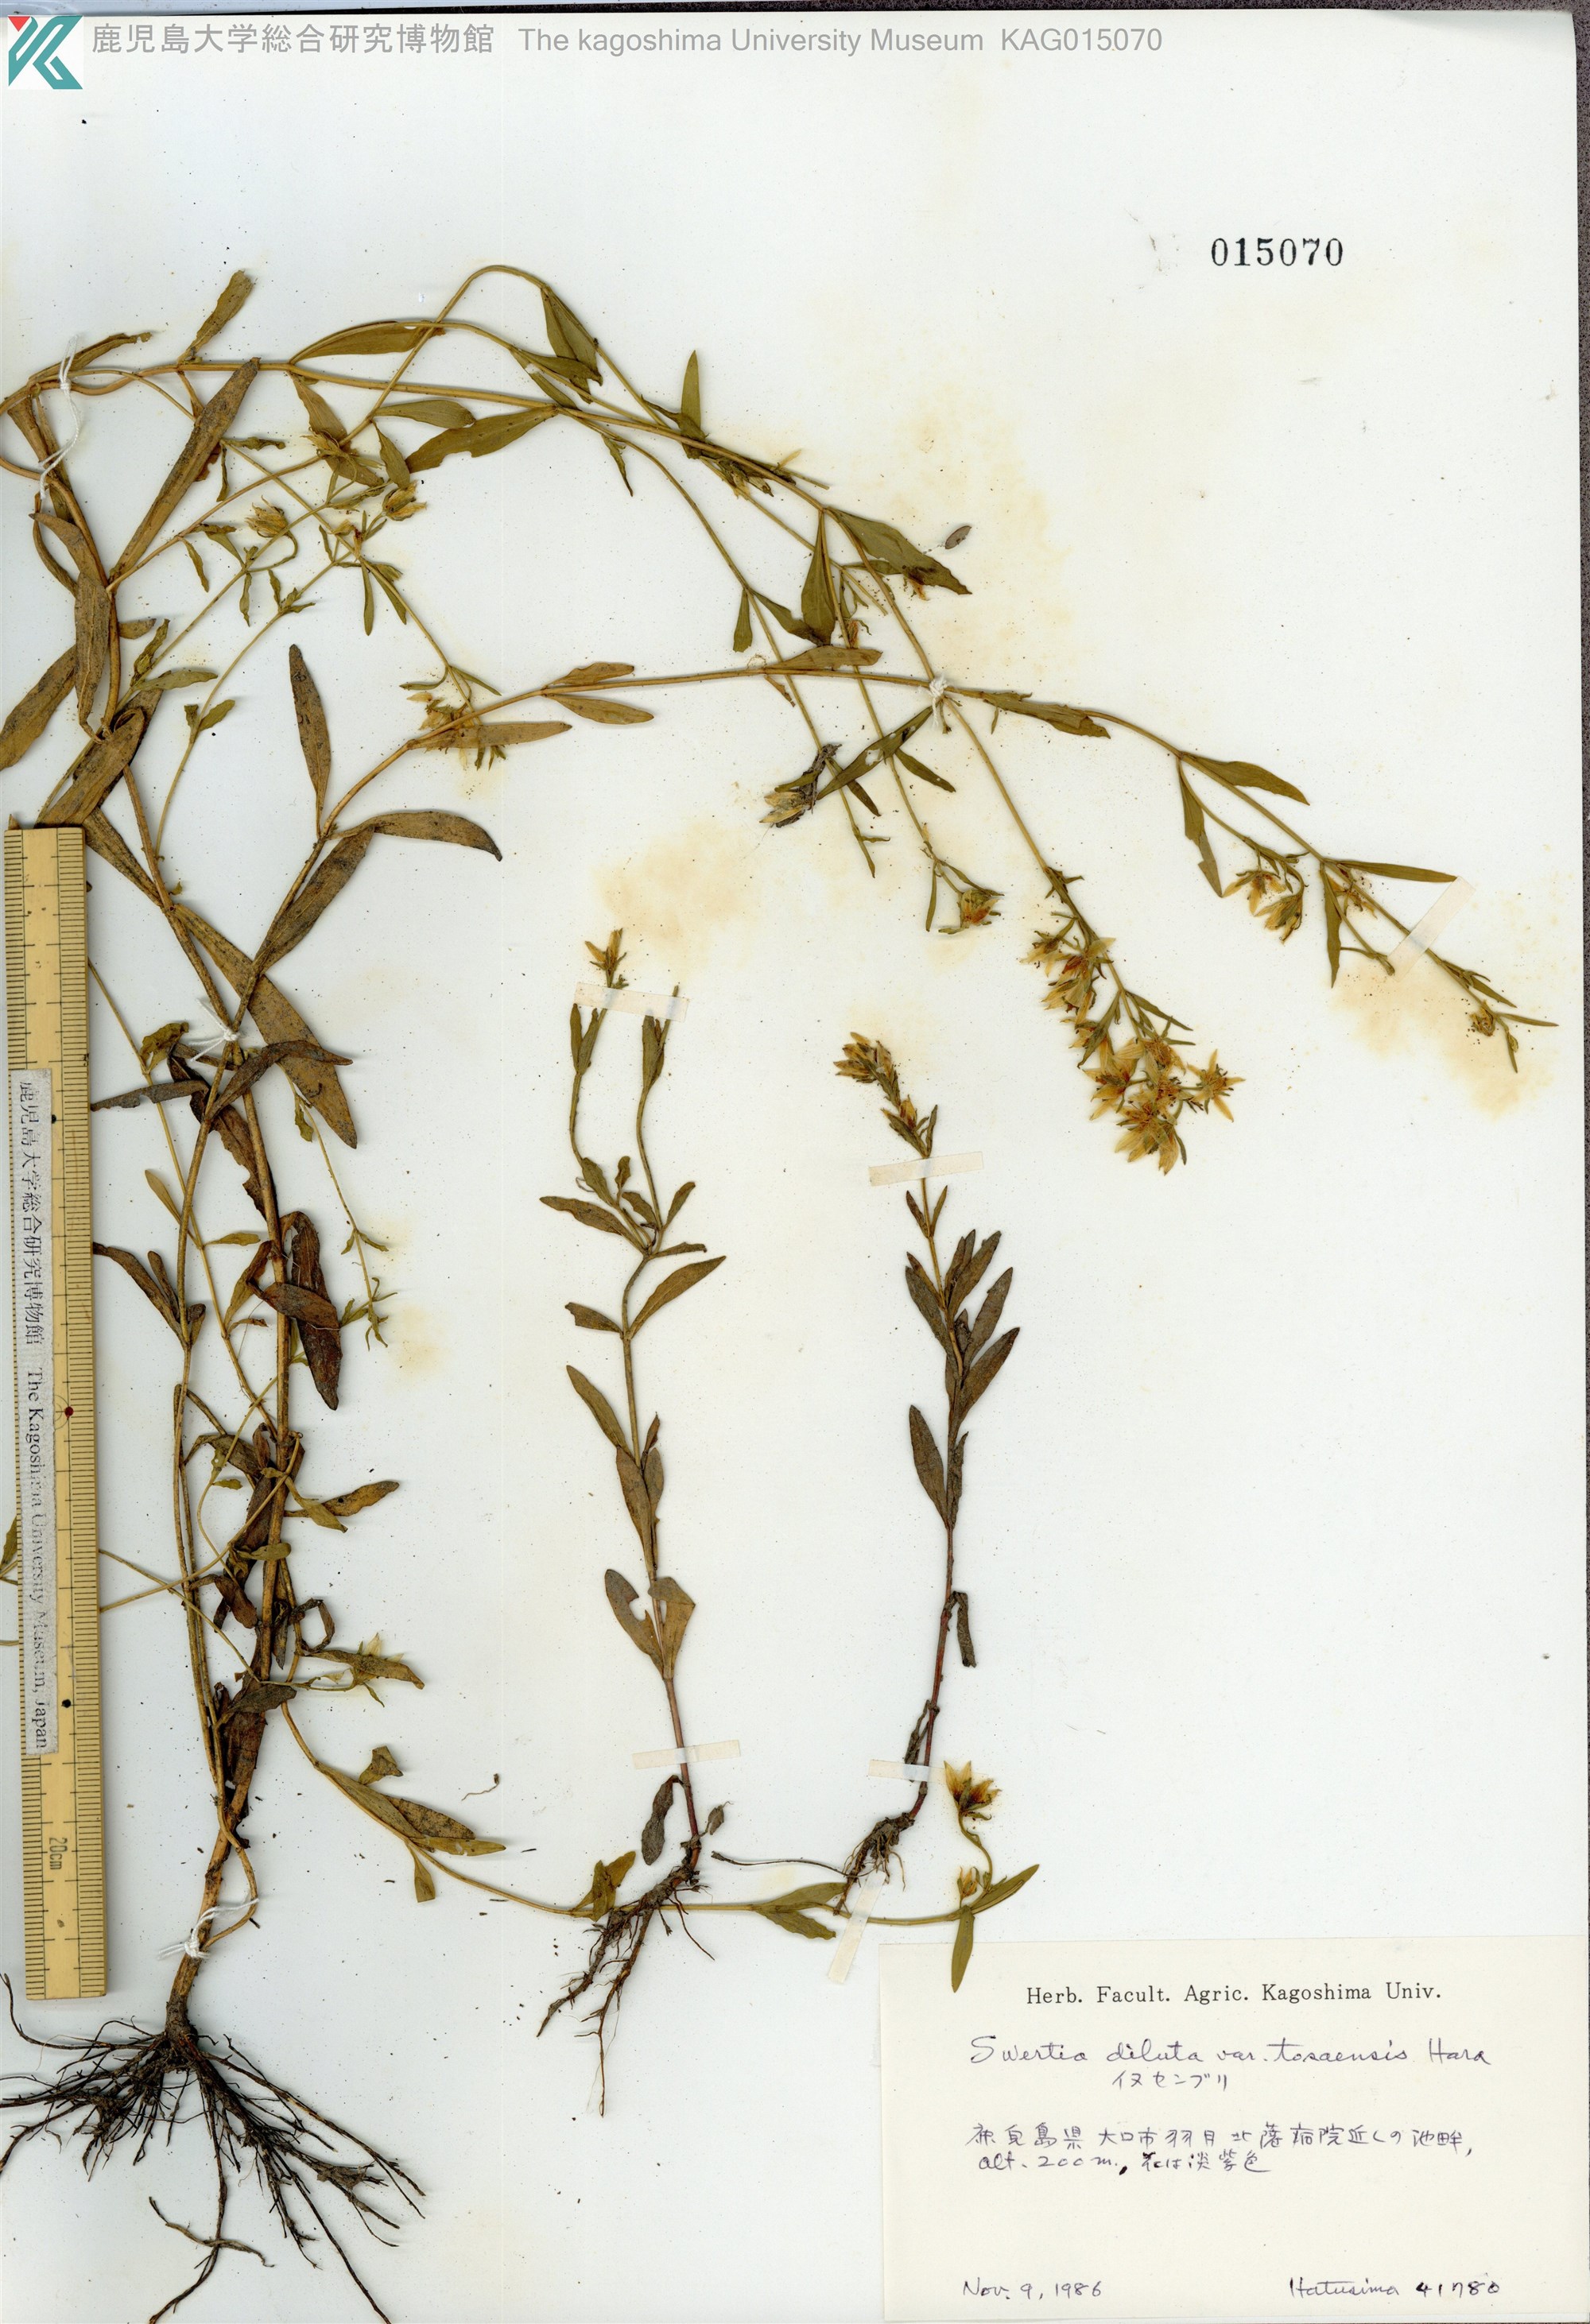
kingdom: Plantae
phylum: Tracheophyta
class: Magnoliopsida
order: Gentianales
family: Gentianaceae
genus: Swertia
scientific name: Swertia diluta
